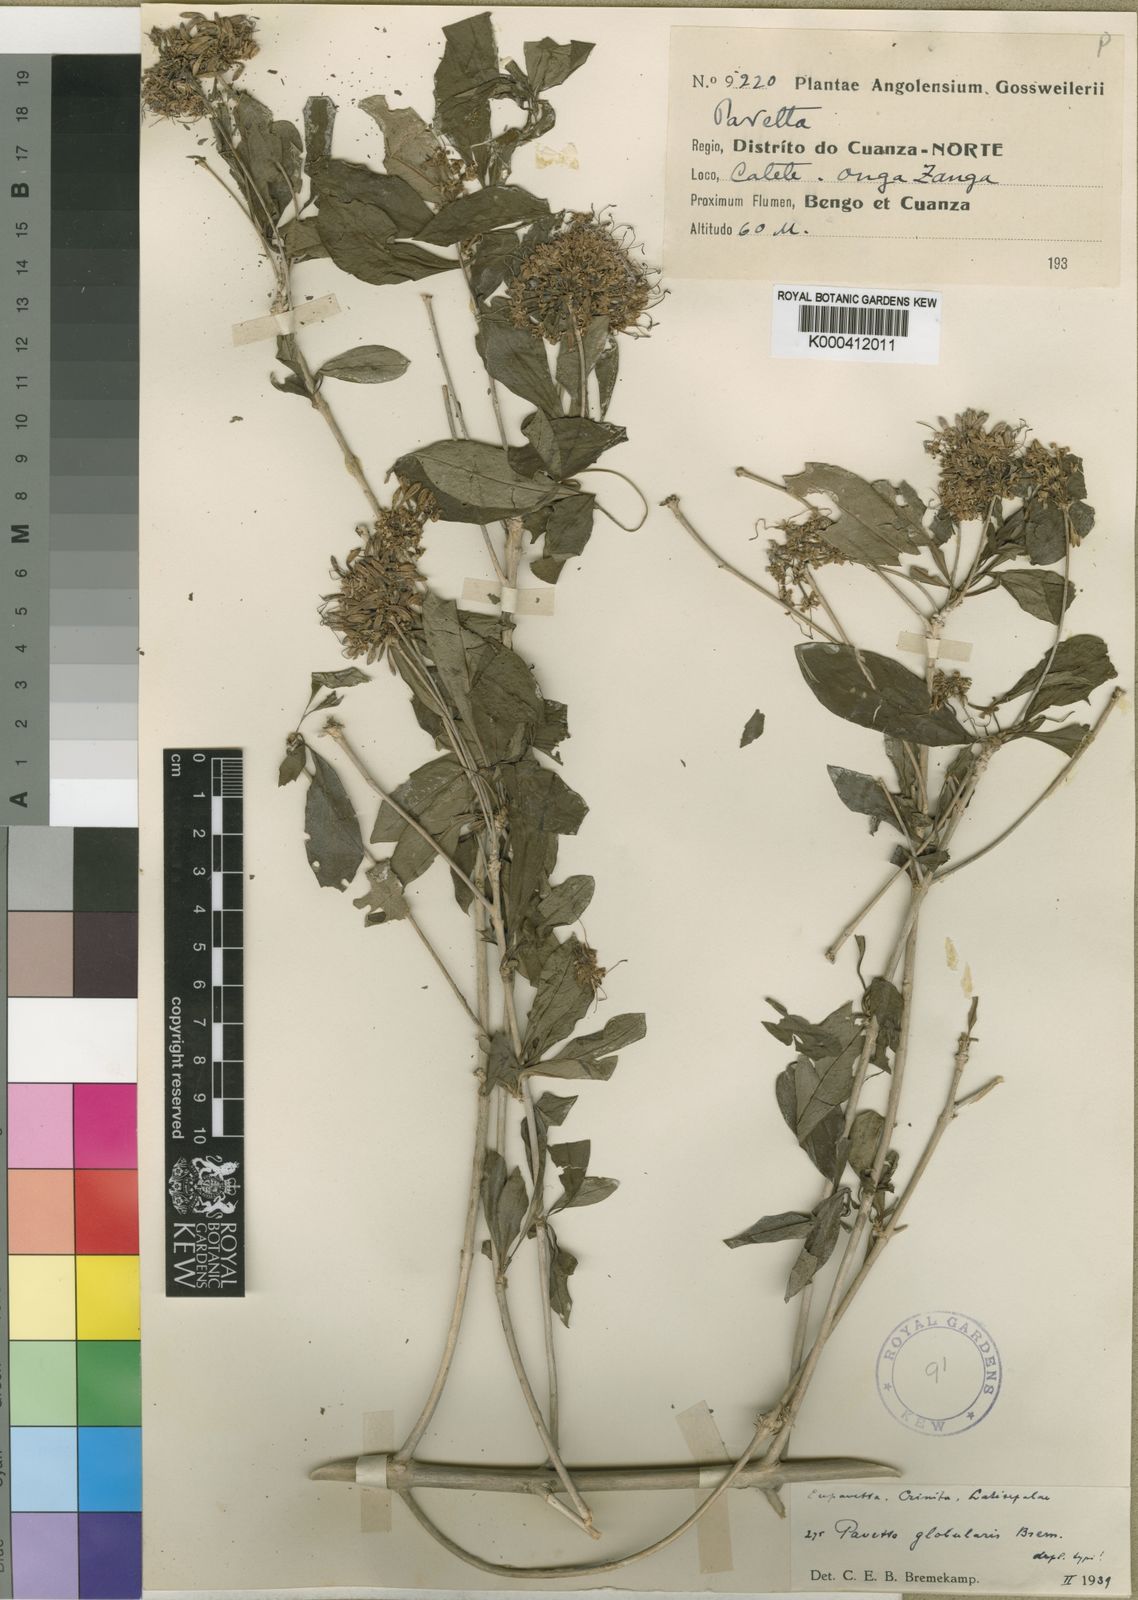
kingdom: Plantae
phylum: Tracheophyta
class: Magnoliopsida
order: Gentianales
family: Rubiaceae
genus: Pavetta
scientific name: Pavetta globularis
